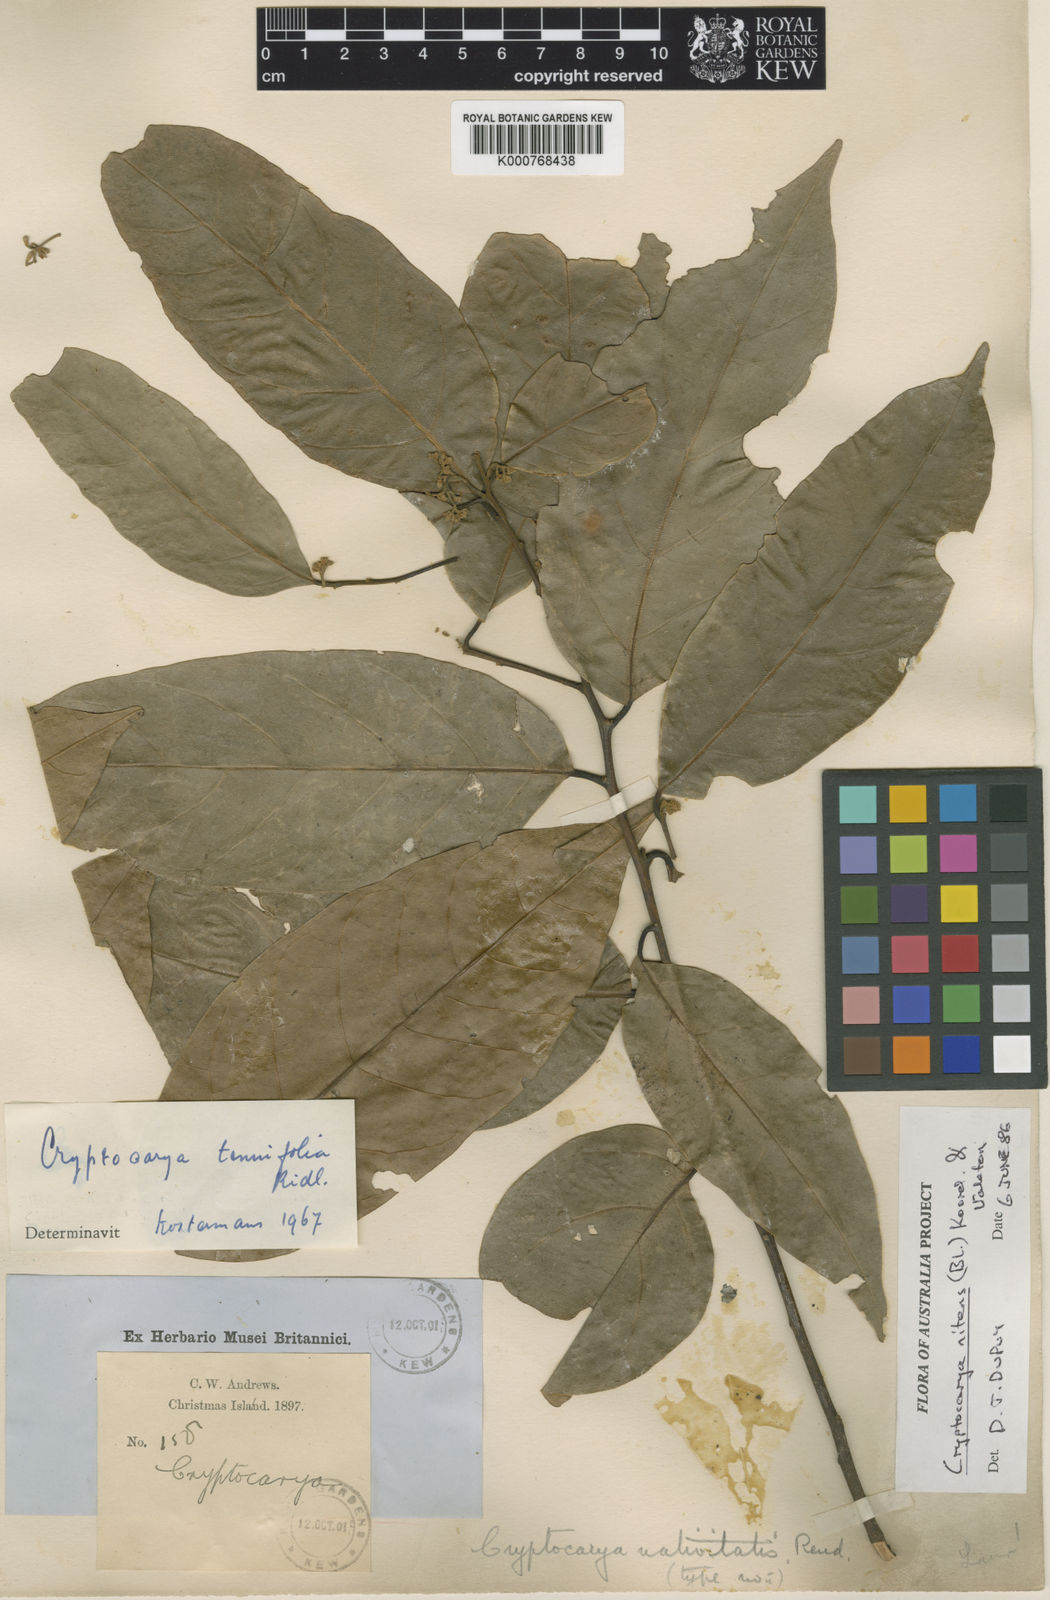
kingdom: Plantae
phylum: Tracheophyta
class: Magnoliopsida
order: Laurales
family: Lauraceae
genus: Cryptocarya
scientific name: Cryptocarya nitens
